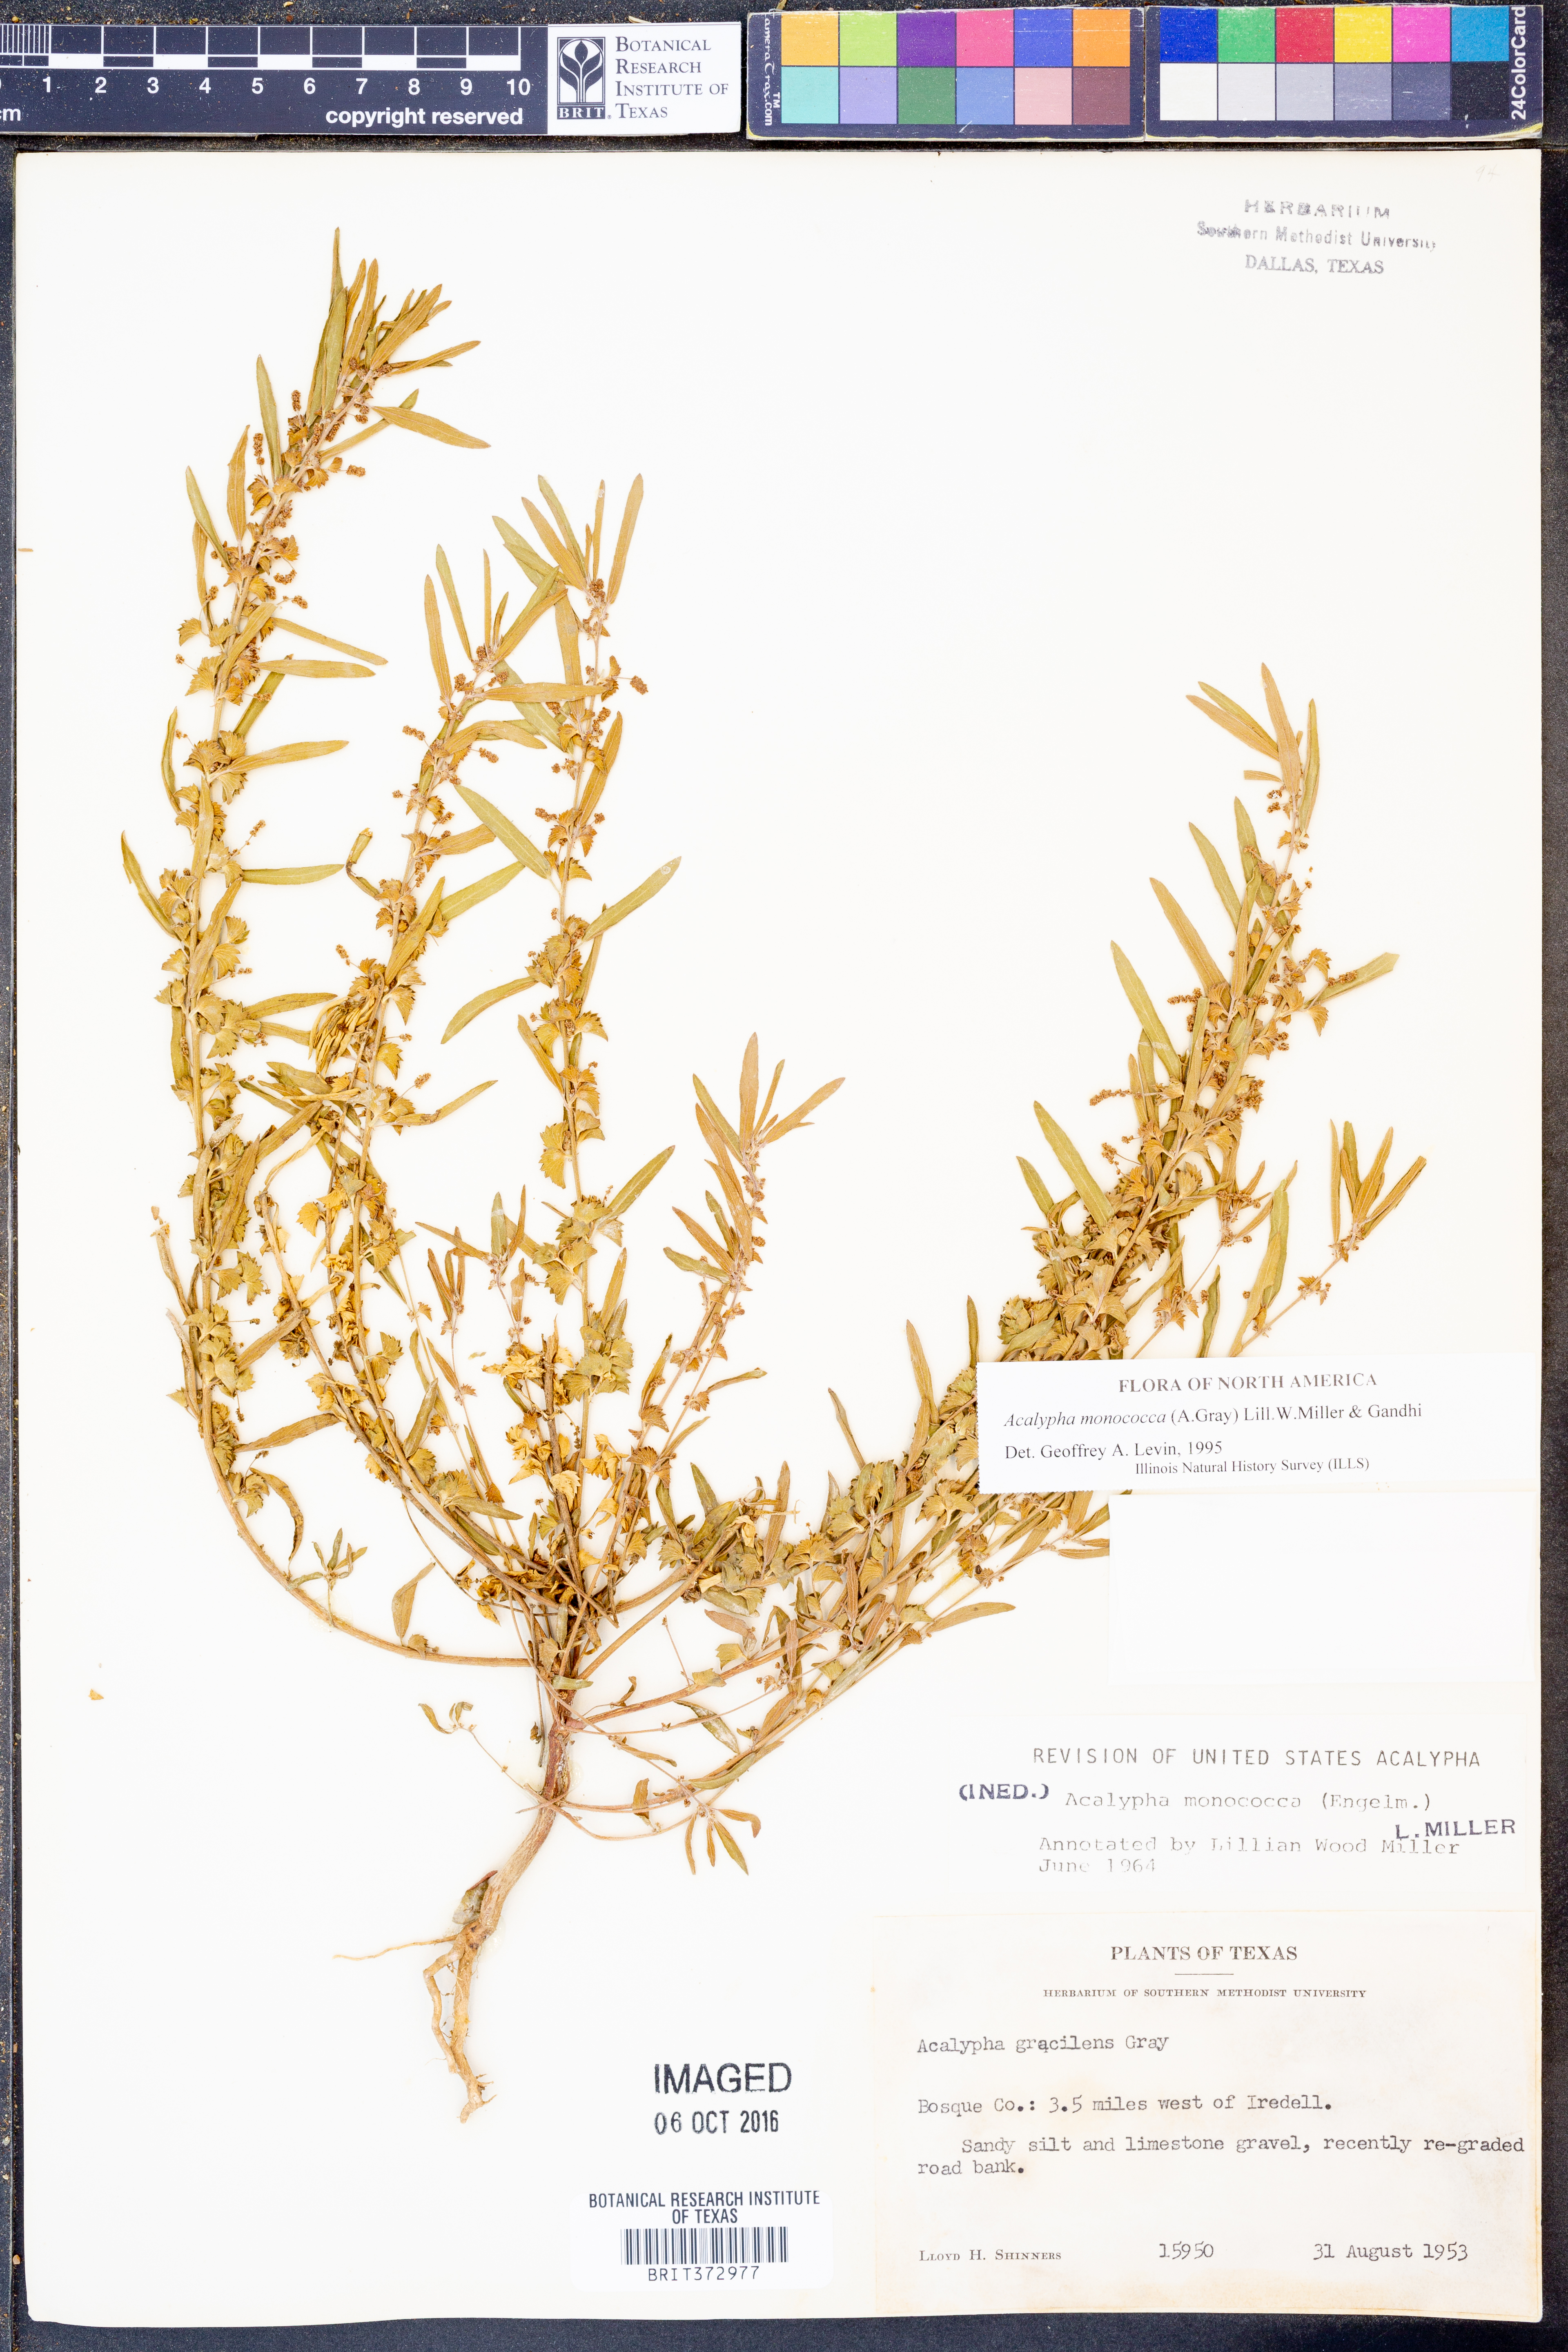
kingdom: Plantae
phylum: Tracheophyta
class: Magnoliopsida
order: Malpighiales
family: Euphorbiaceae
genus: Acalypha
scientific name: Acalypha monococca
